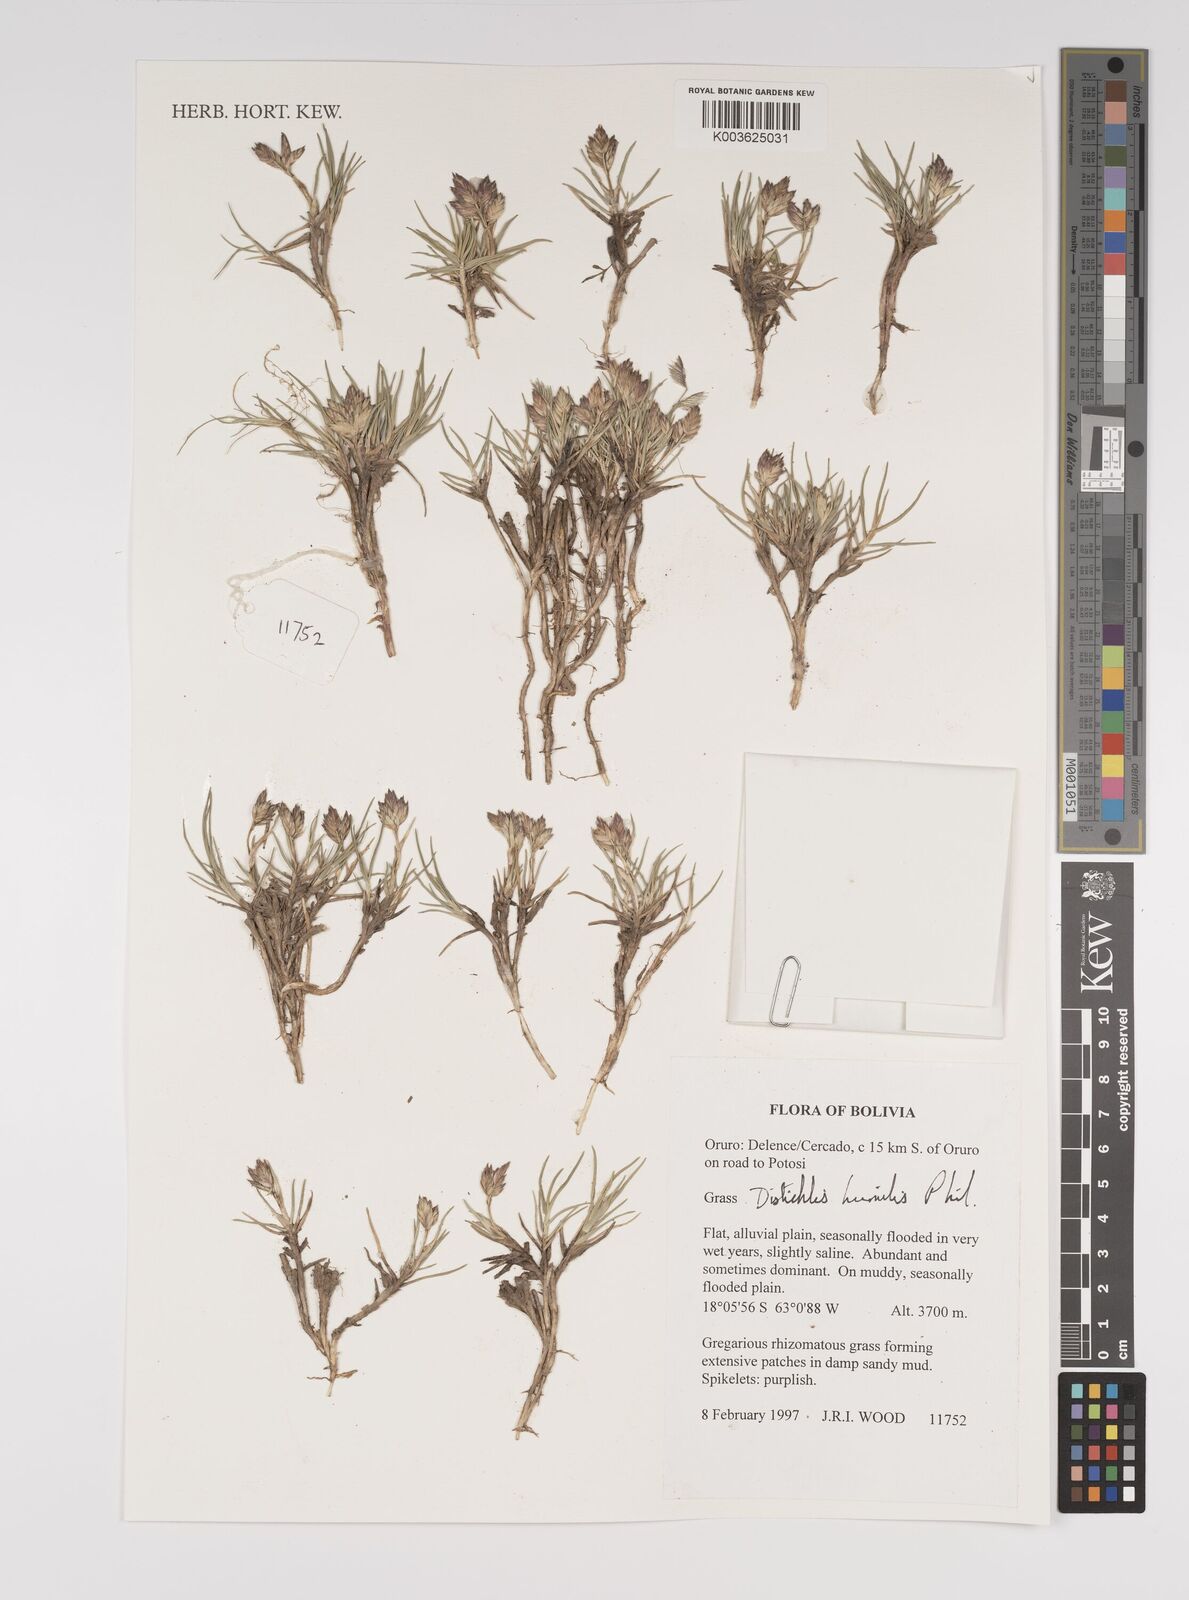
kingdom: Plantae
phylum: Tracheophyta
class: Liliopsida
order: Poales
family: Poaceae
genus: Distichlis
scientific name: Distichlis humilis
